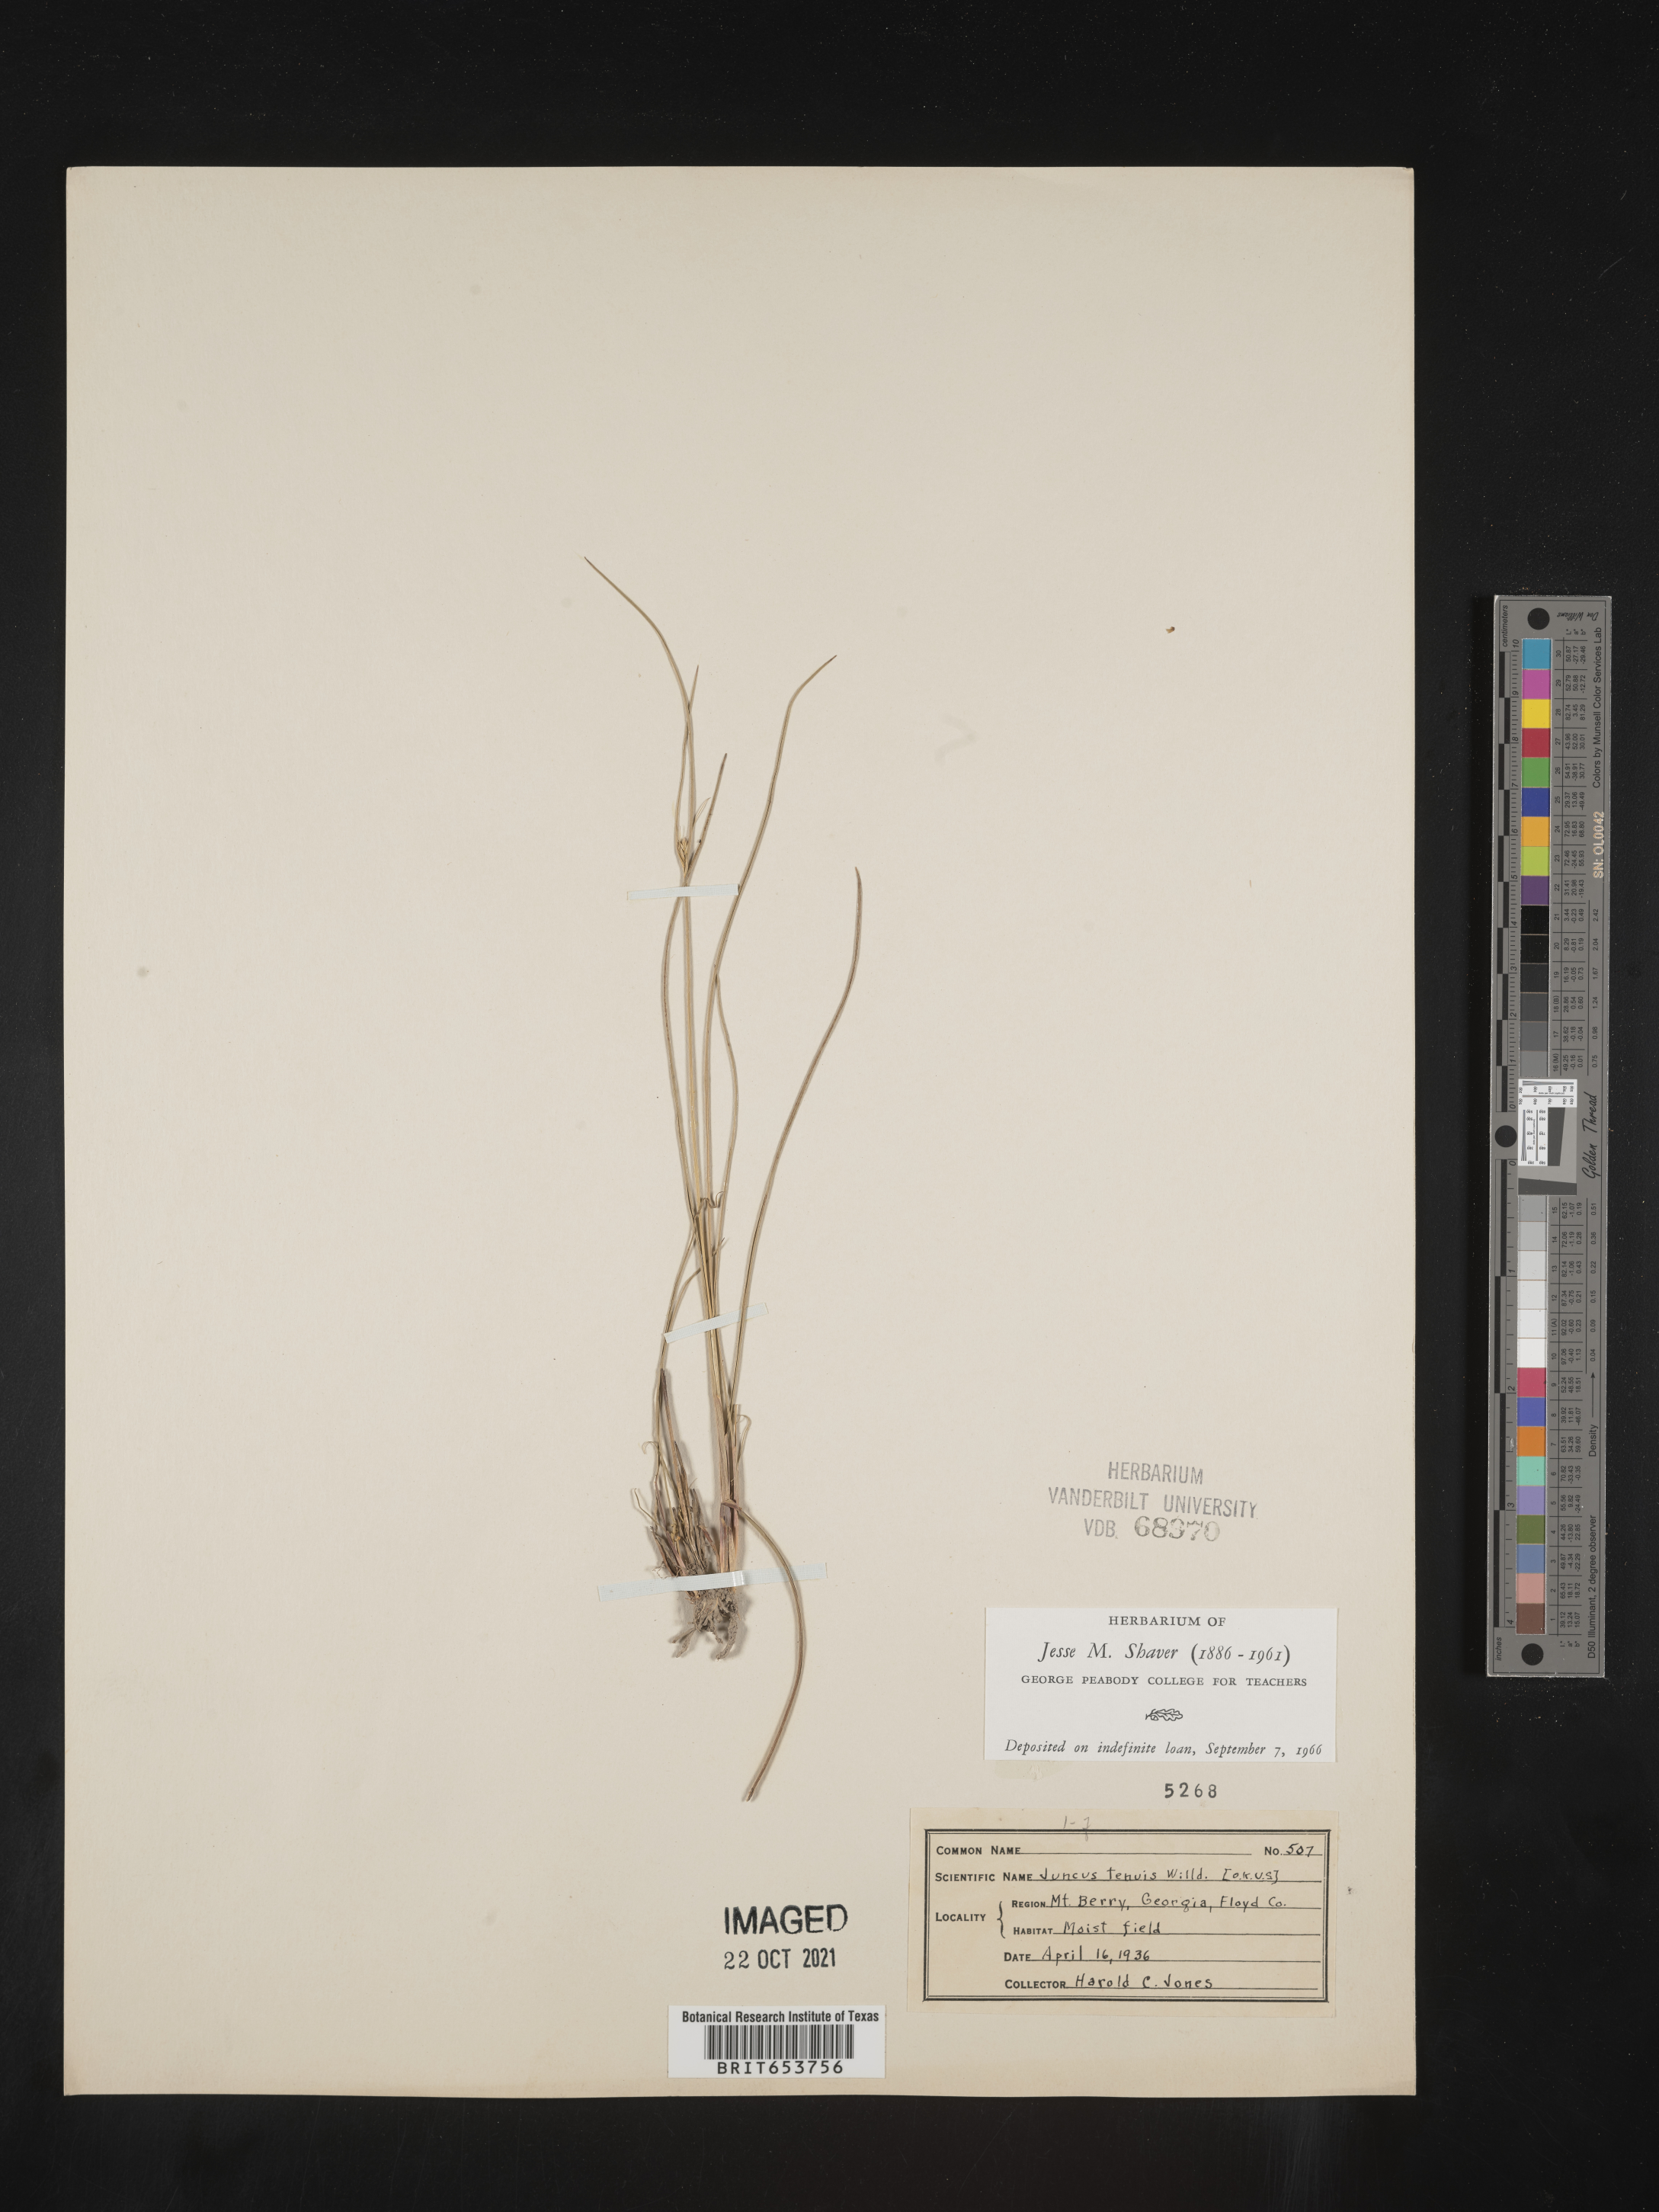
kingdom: Plantae
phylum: Tracheophyta
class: Liliopsida
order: Poales
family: Juncaceae
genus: Juncus
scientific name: Juncus tenuis
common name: Slender rush
